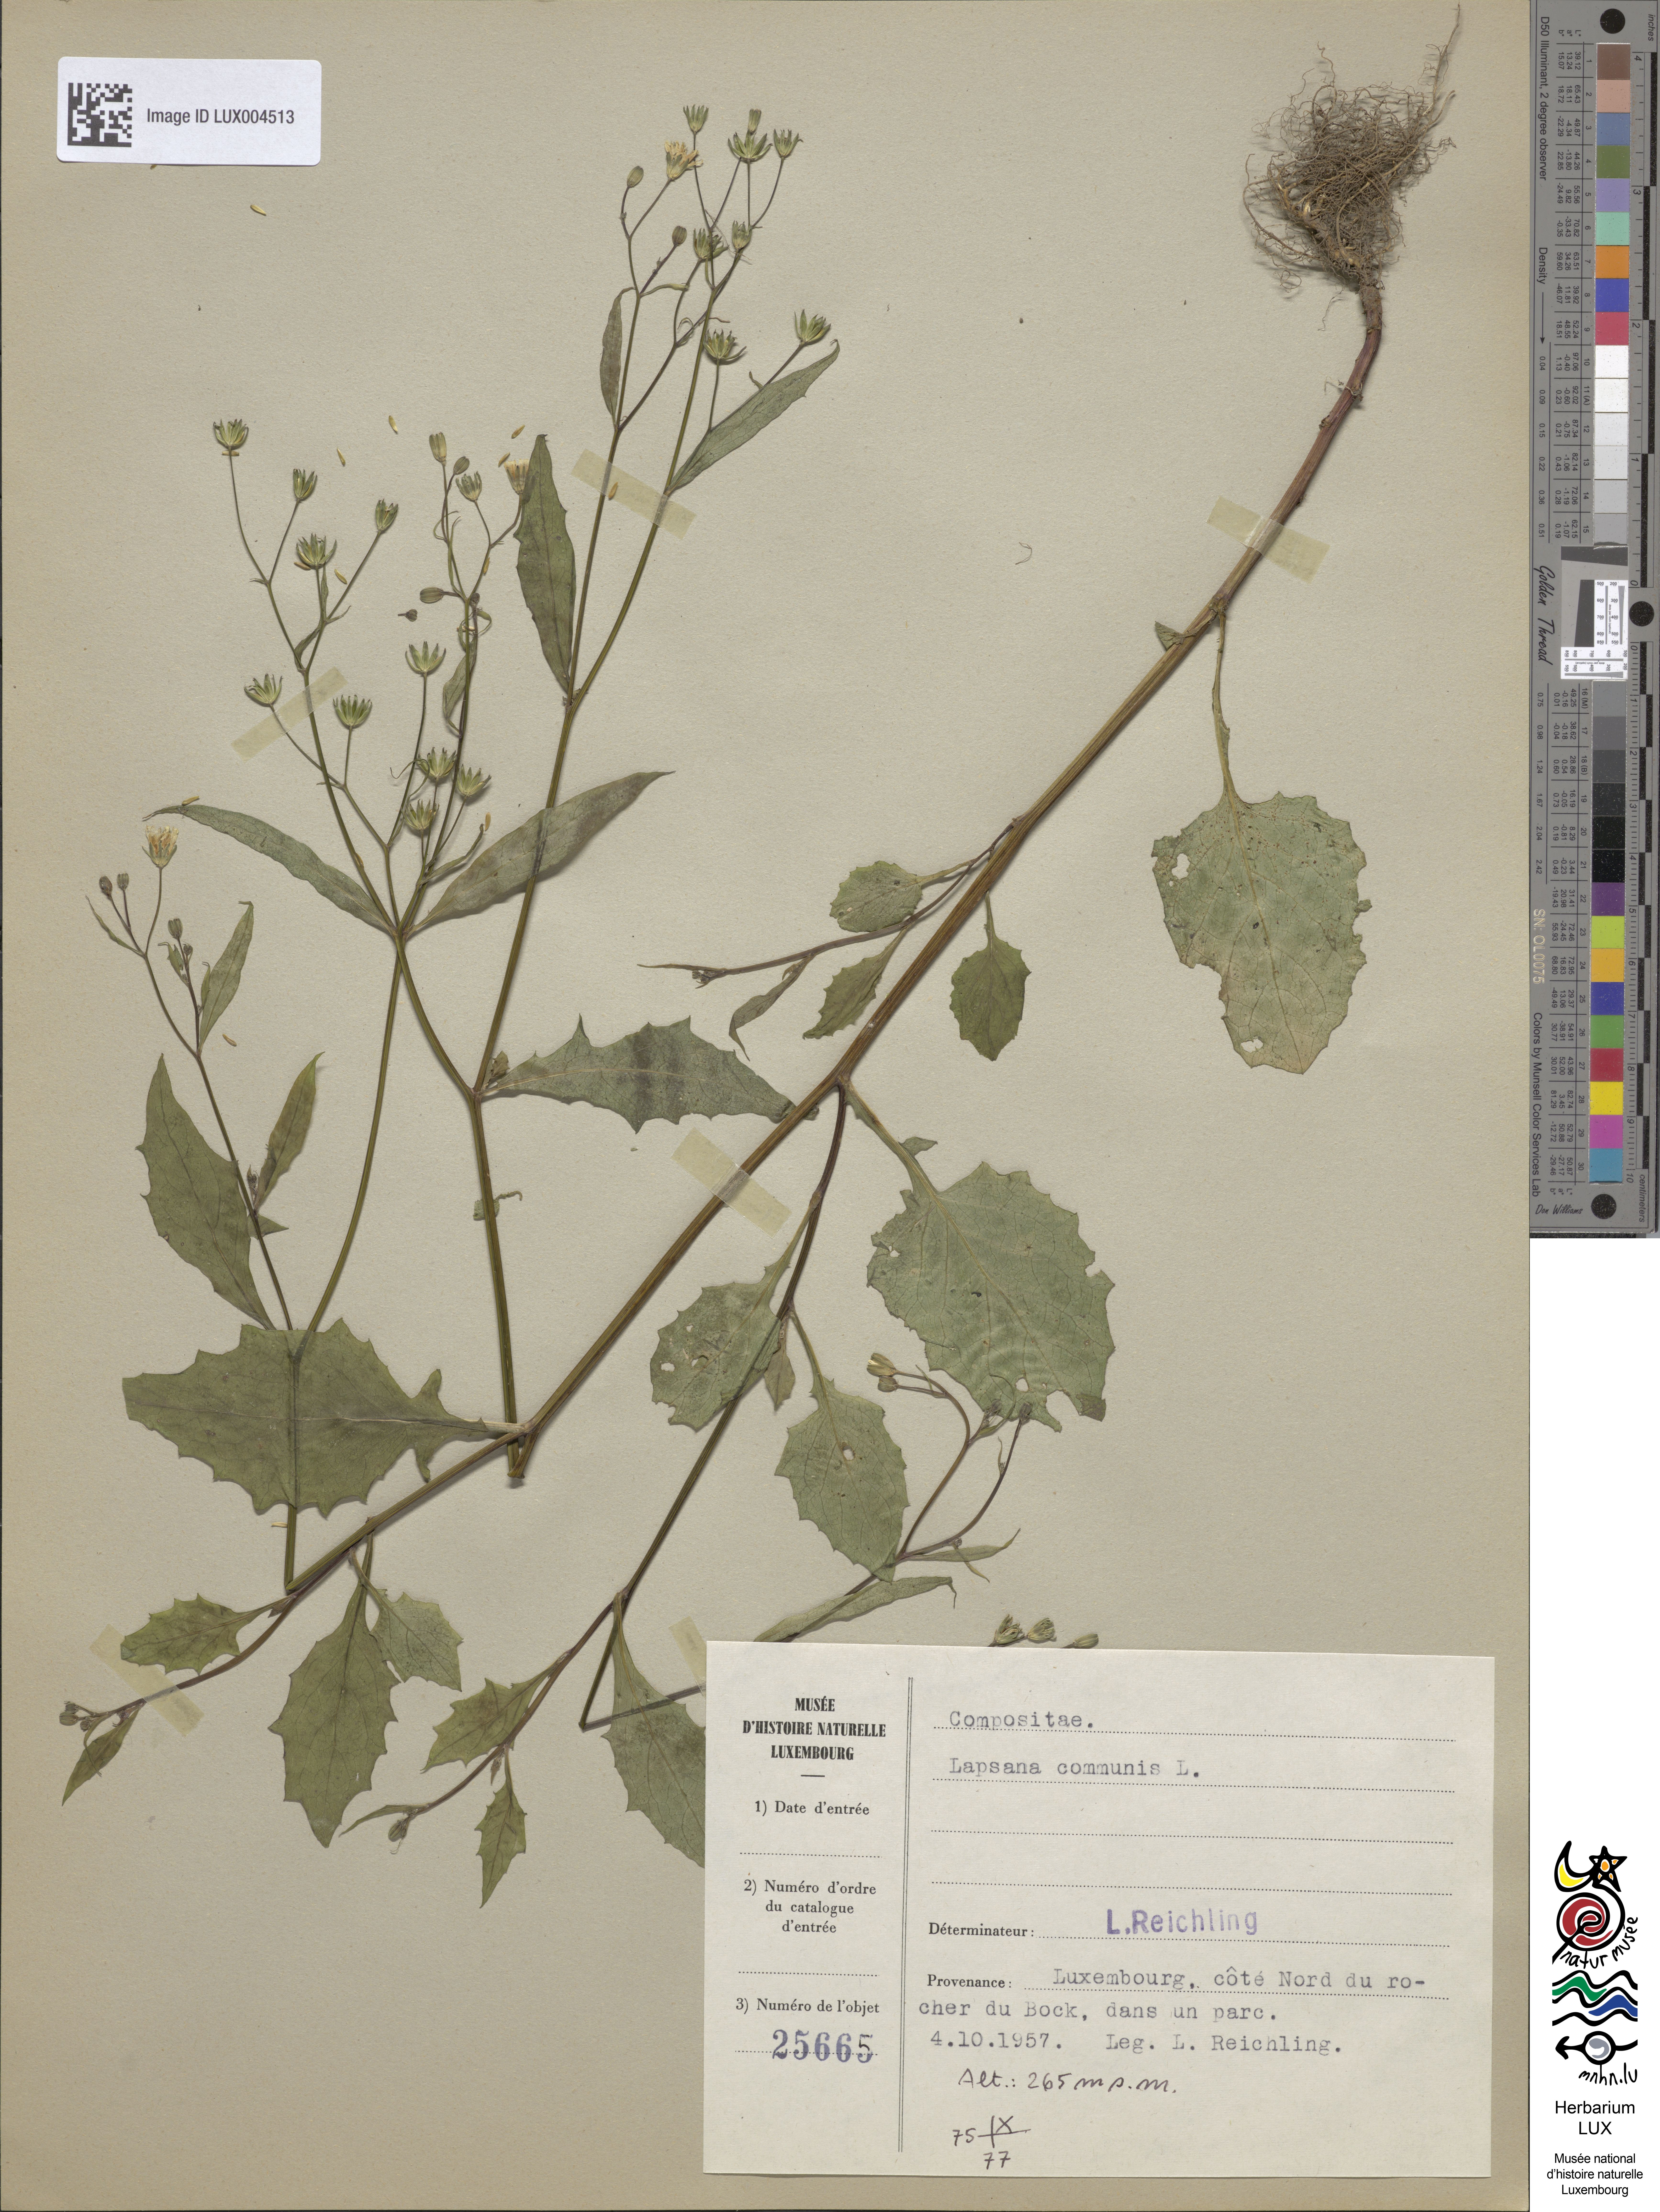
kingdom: Plantae
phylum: Tracheophyta
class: Magnoliopsida
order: Asterales
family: Asteraceae
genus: Lapsana
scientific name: Lapsana communis
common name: Nipplewort
